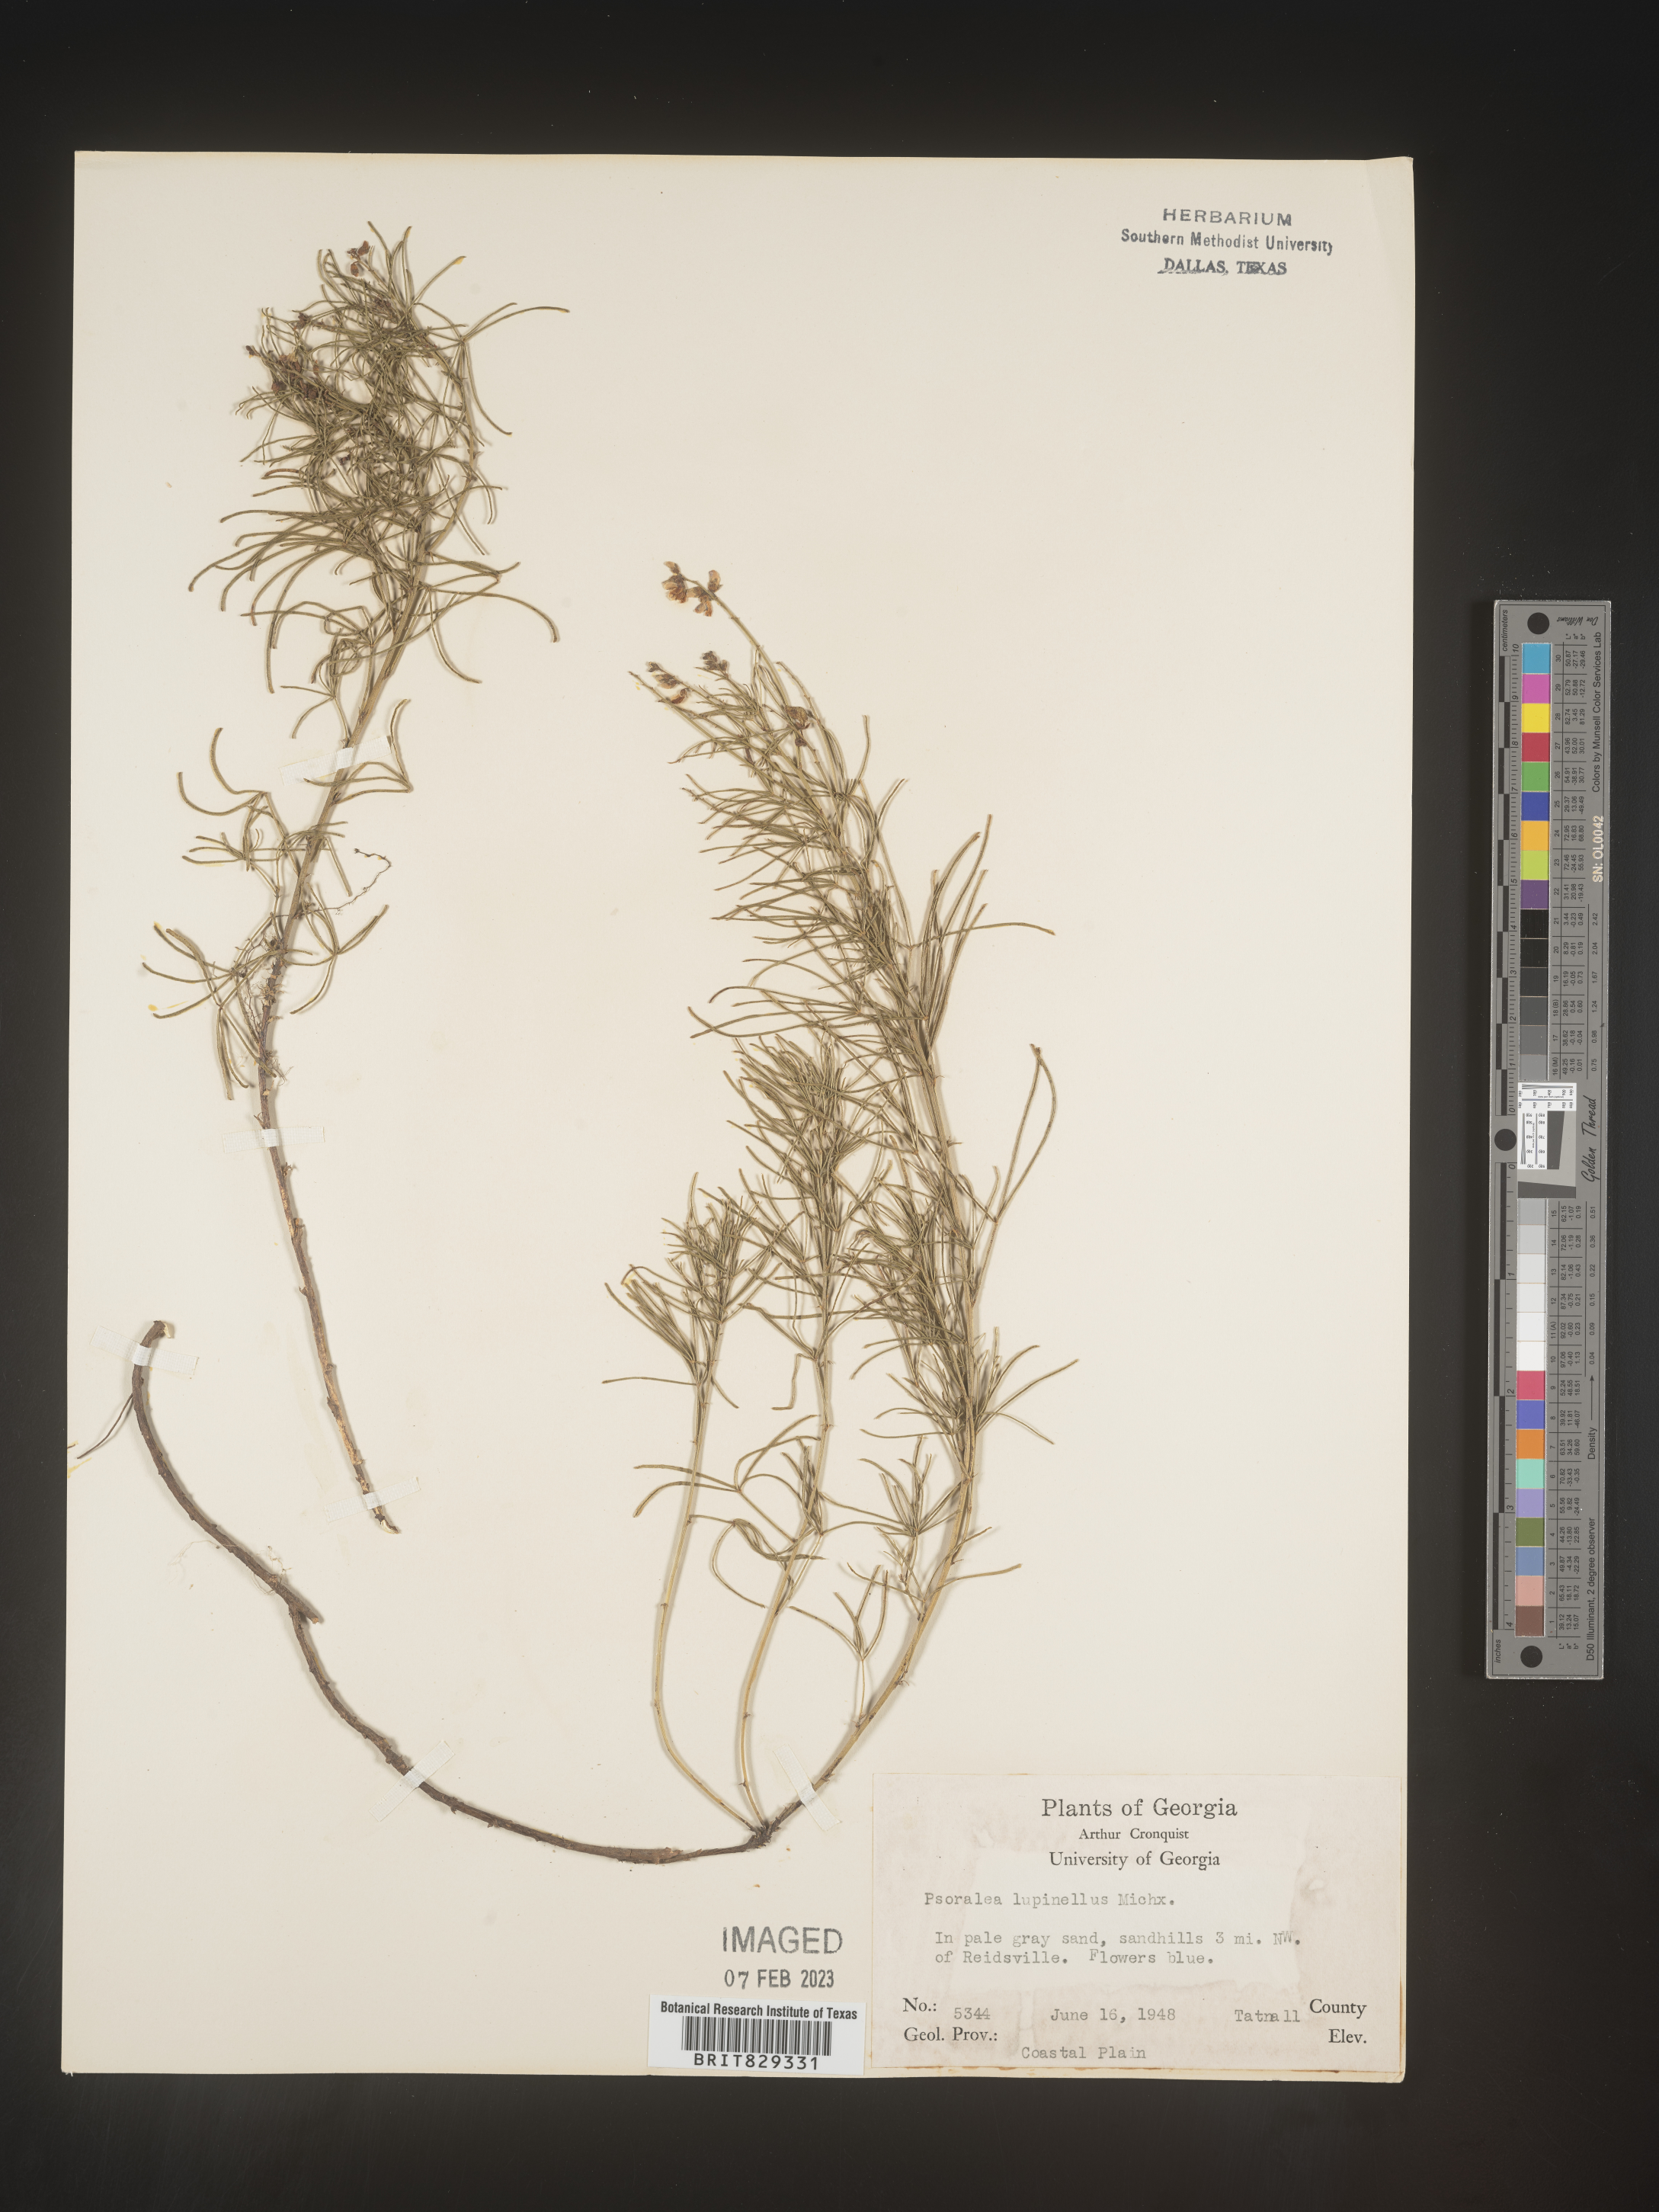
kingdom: Plantae
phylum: Tracheophyta
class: Magnoliopsida
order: Fabales
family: Fabaceae
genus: Psoralea
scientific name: Psoralea
